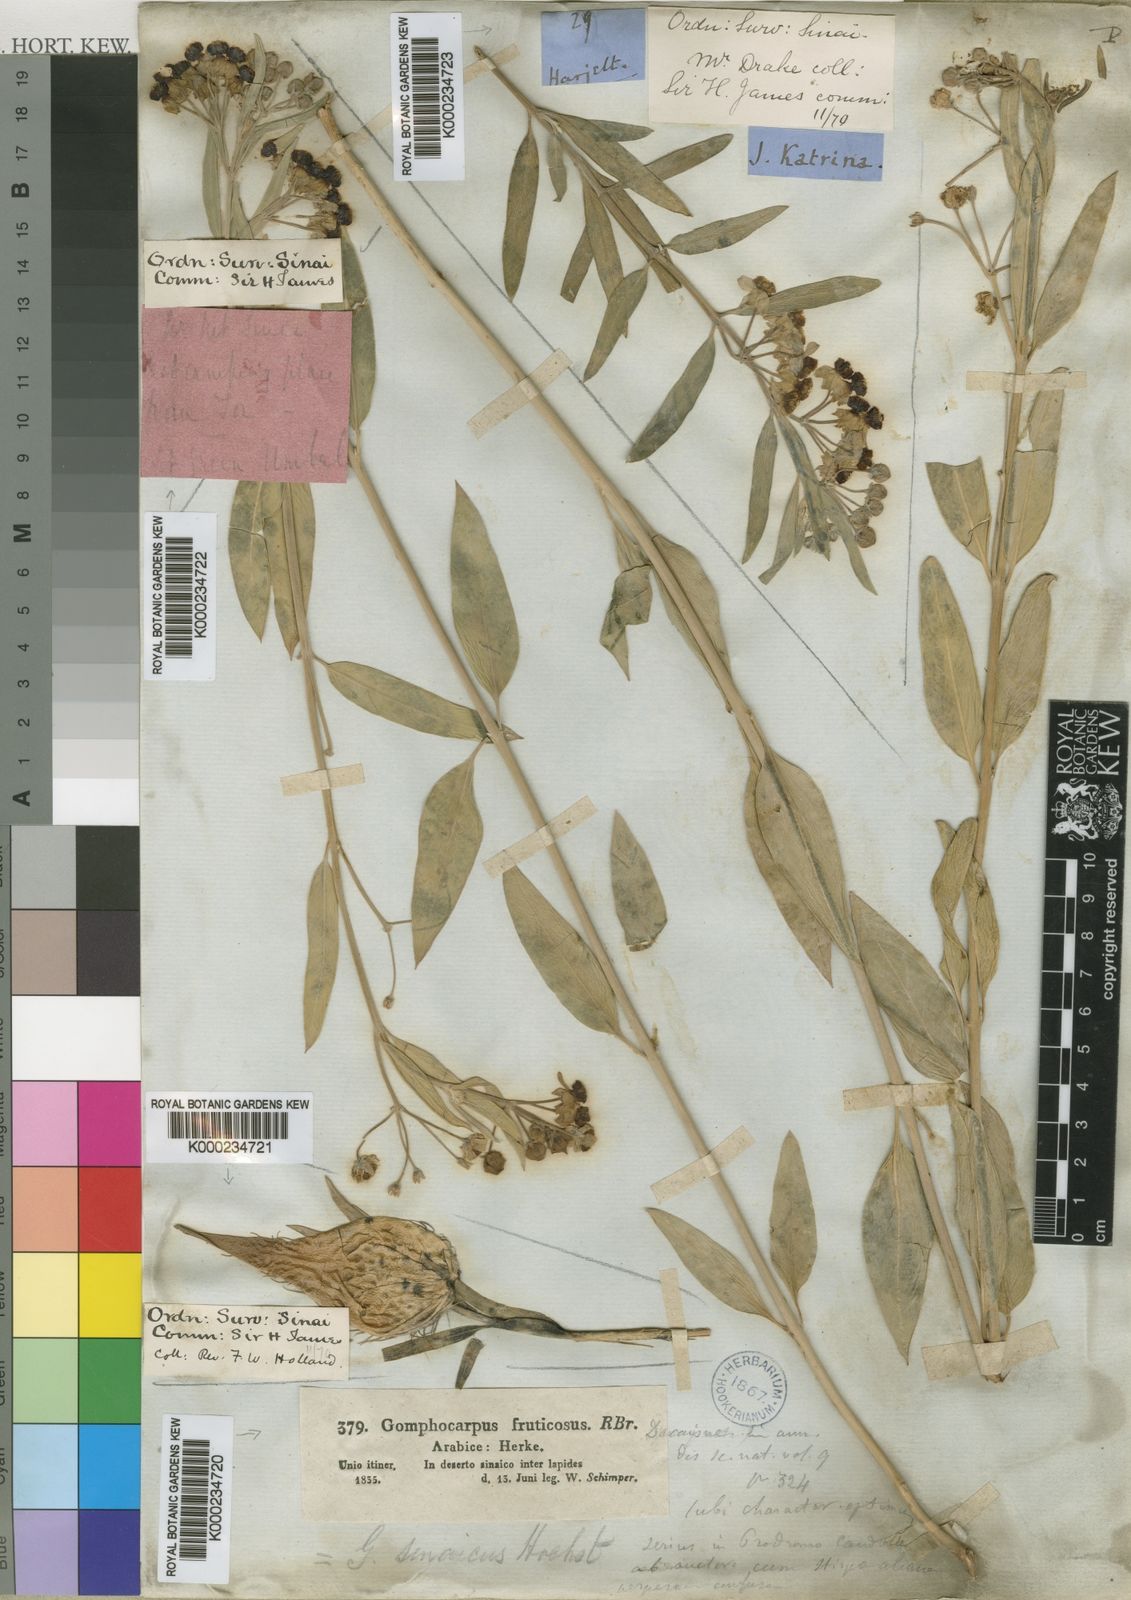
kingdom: Plantae
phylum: Tracheophyta
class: Magnoliopsida
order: Gentianales
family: Apocynaceae
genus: Gomphocarpus
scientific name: Gomphocarpus sinaicus
